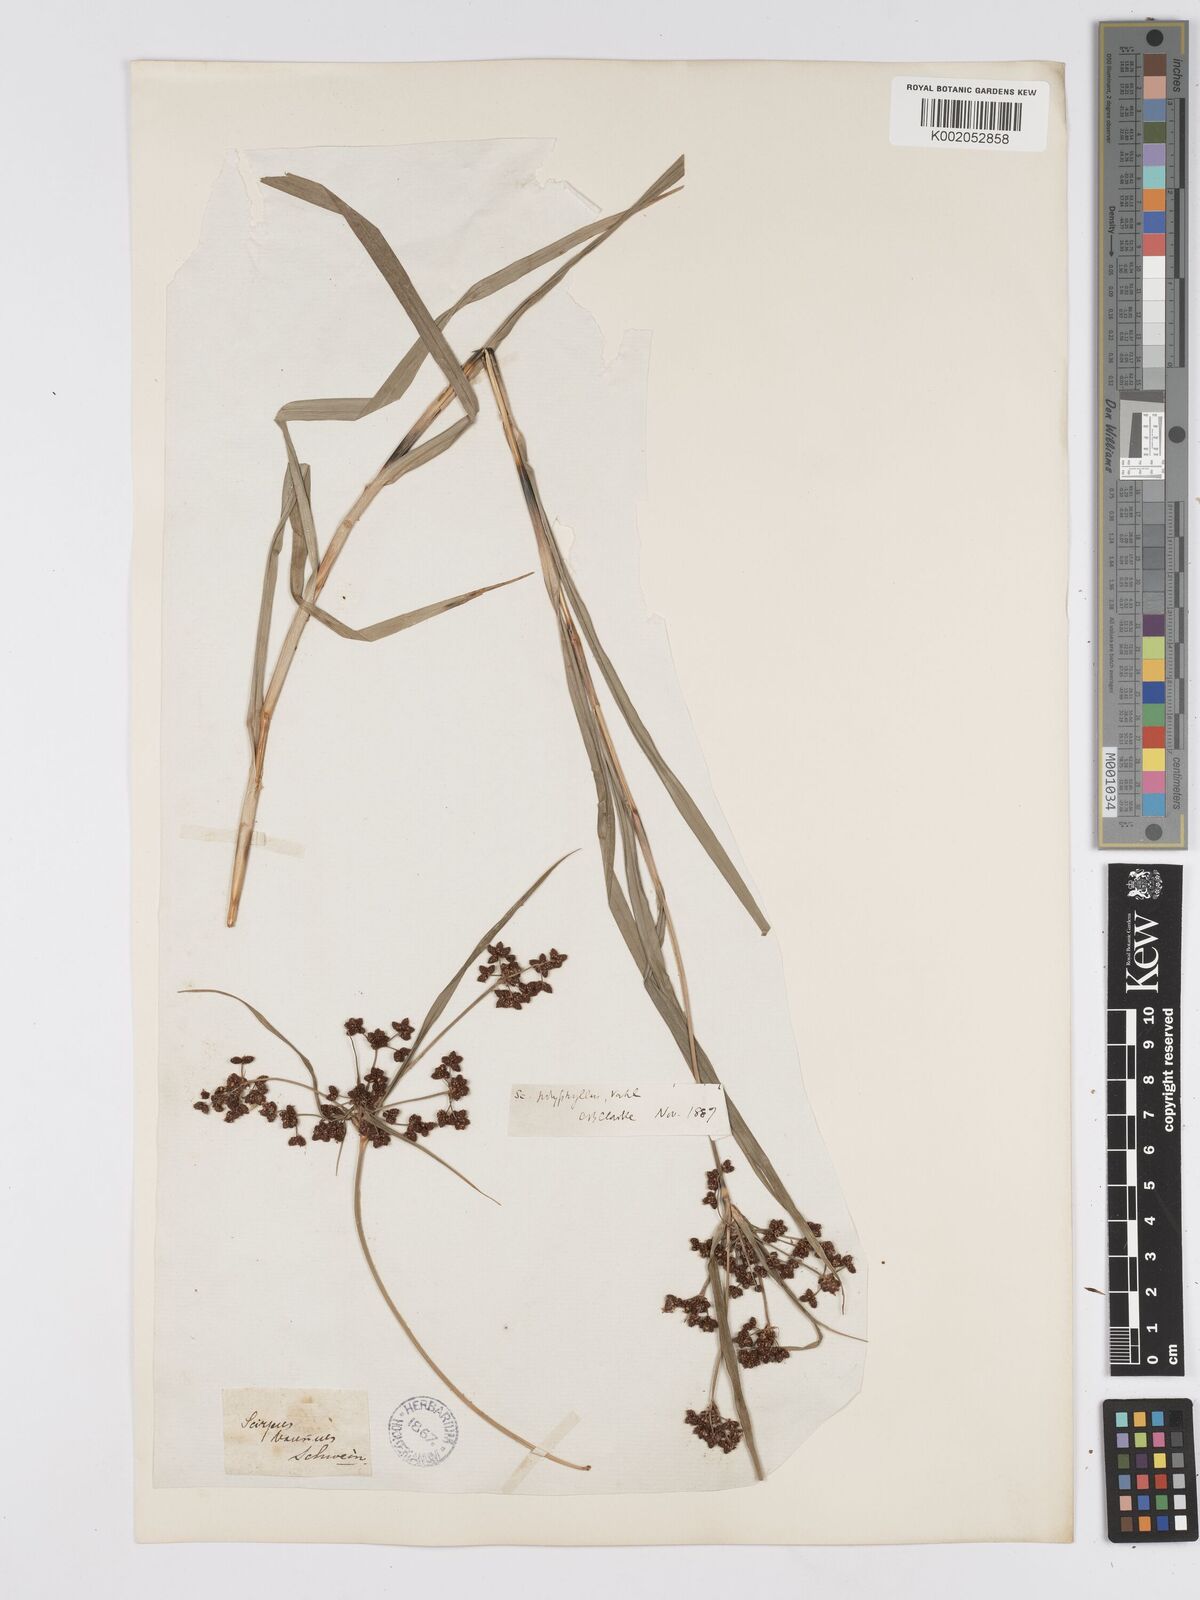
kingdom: Plantae
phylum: Tracheophyta
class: Liliopsida
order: Poales
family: Cyperaceae
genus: Scirpus
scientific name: Scirpus polyphyllus
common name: Leafy bulrush
